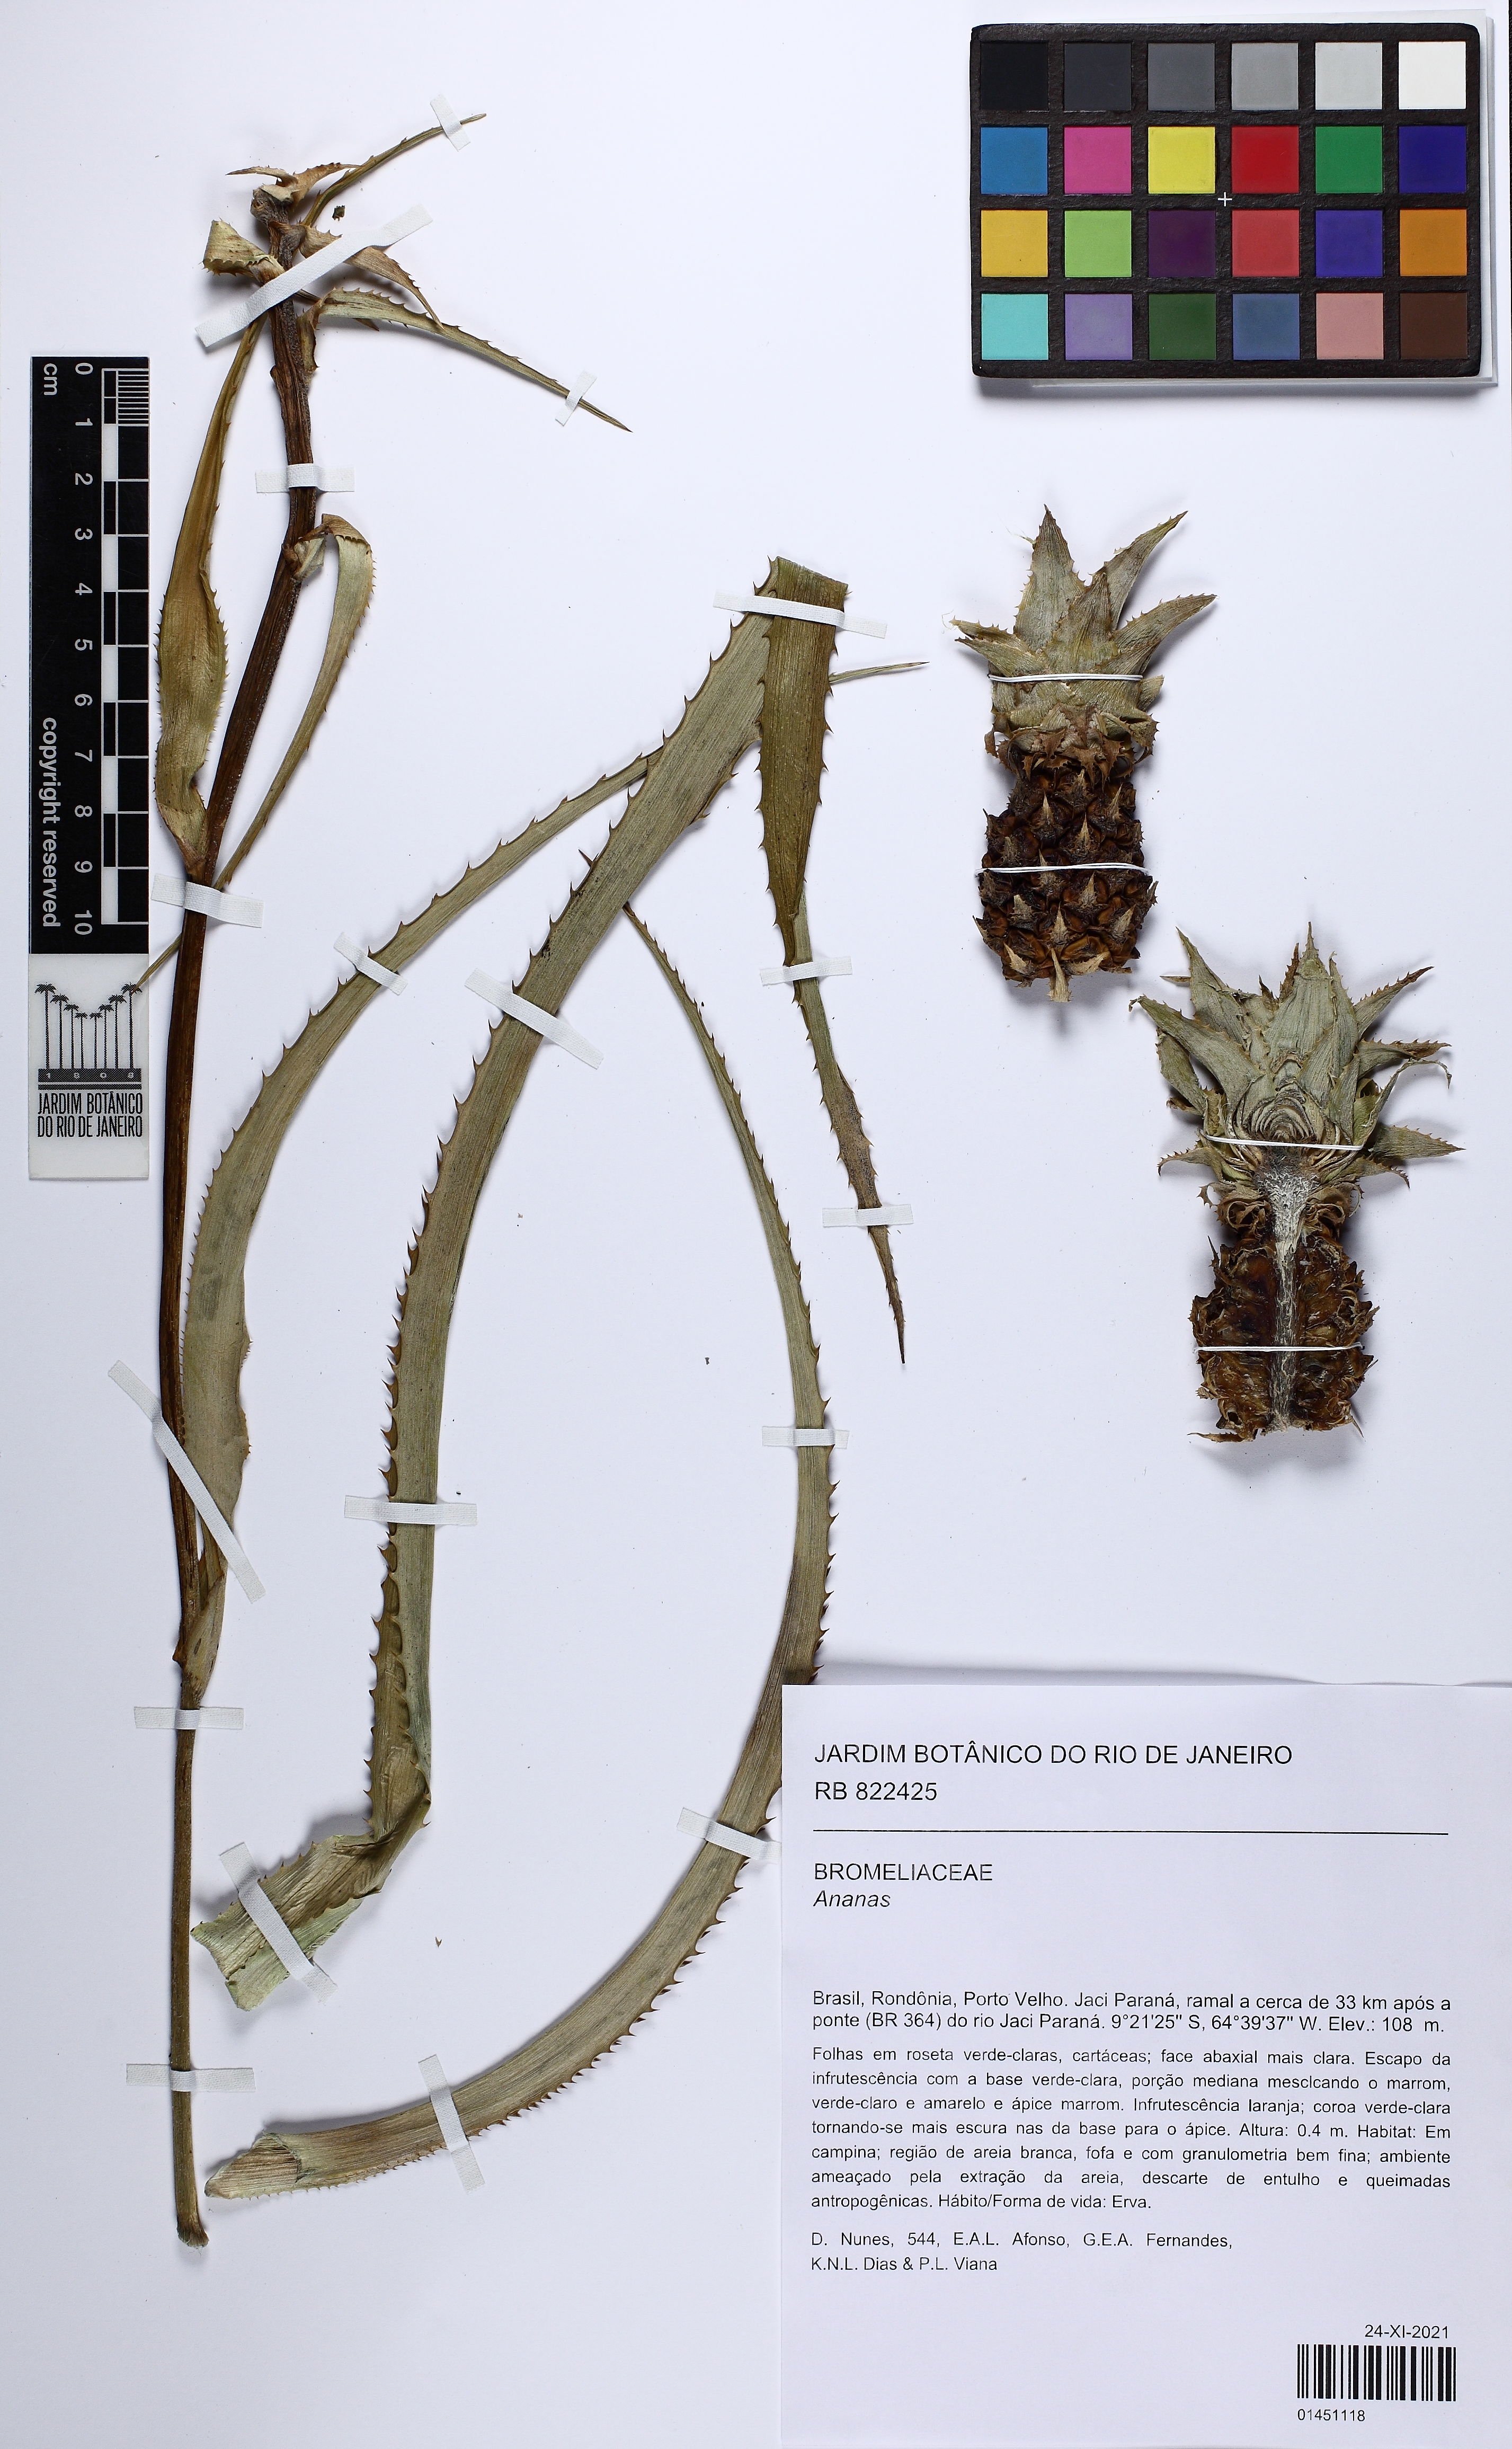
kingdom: Plantae
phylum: Tracheophyta
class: Liliopsida
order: Poales
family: Bromeliaceae
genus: Ananas
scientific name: Ananas comosus
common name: Pineapple
